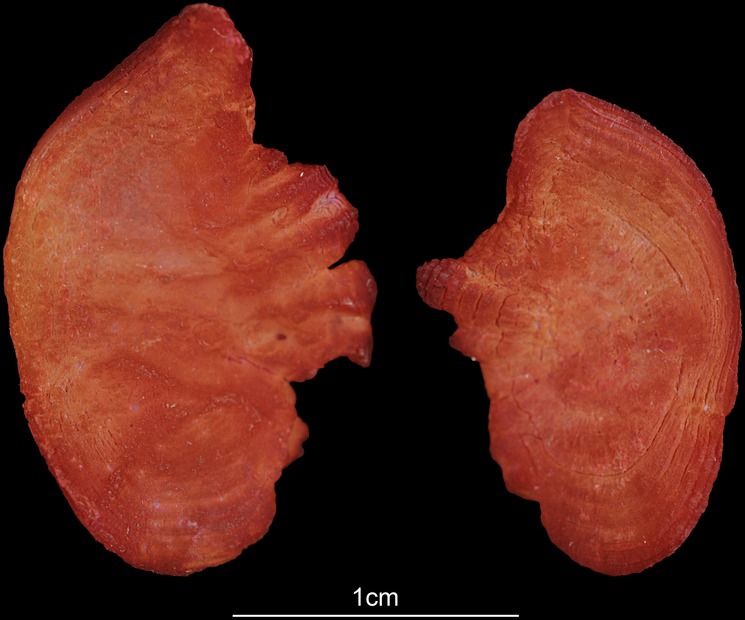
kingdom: Animalia
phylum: Chordata
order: Perciformes
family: Haemulidae
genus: Pomadasys
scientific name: Pomadasys commersonnii
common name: Smallspotted grunter
